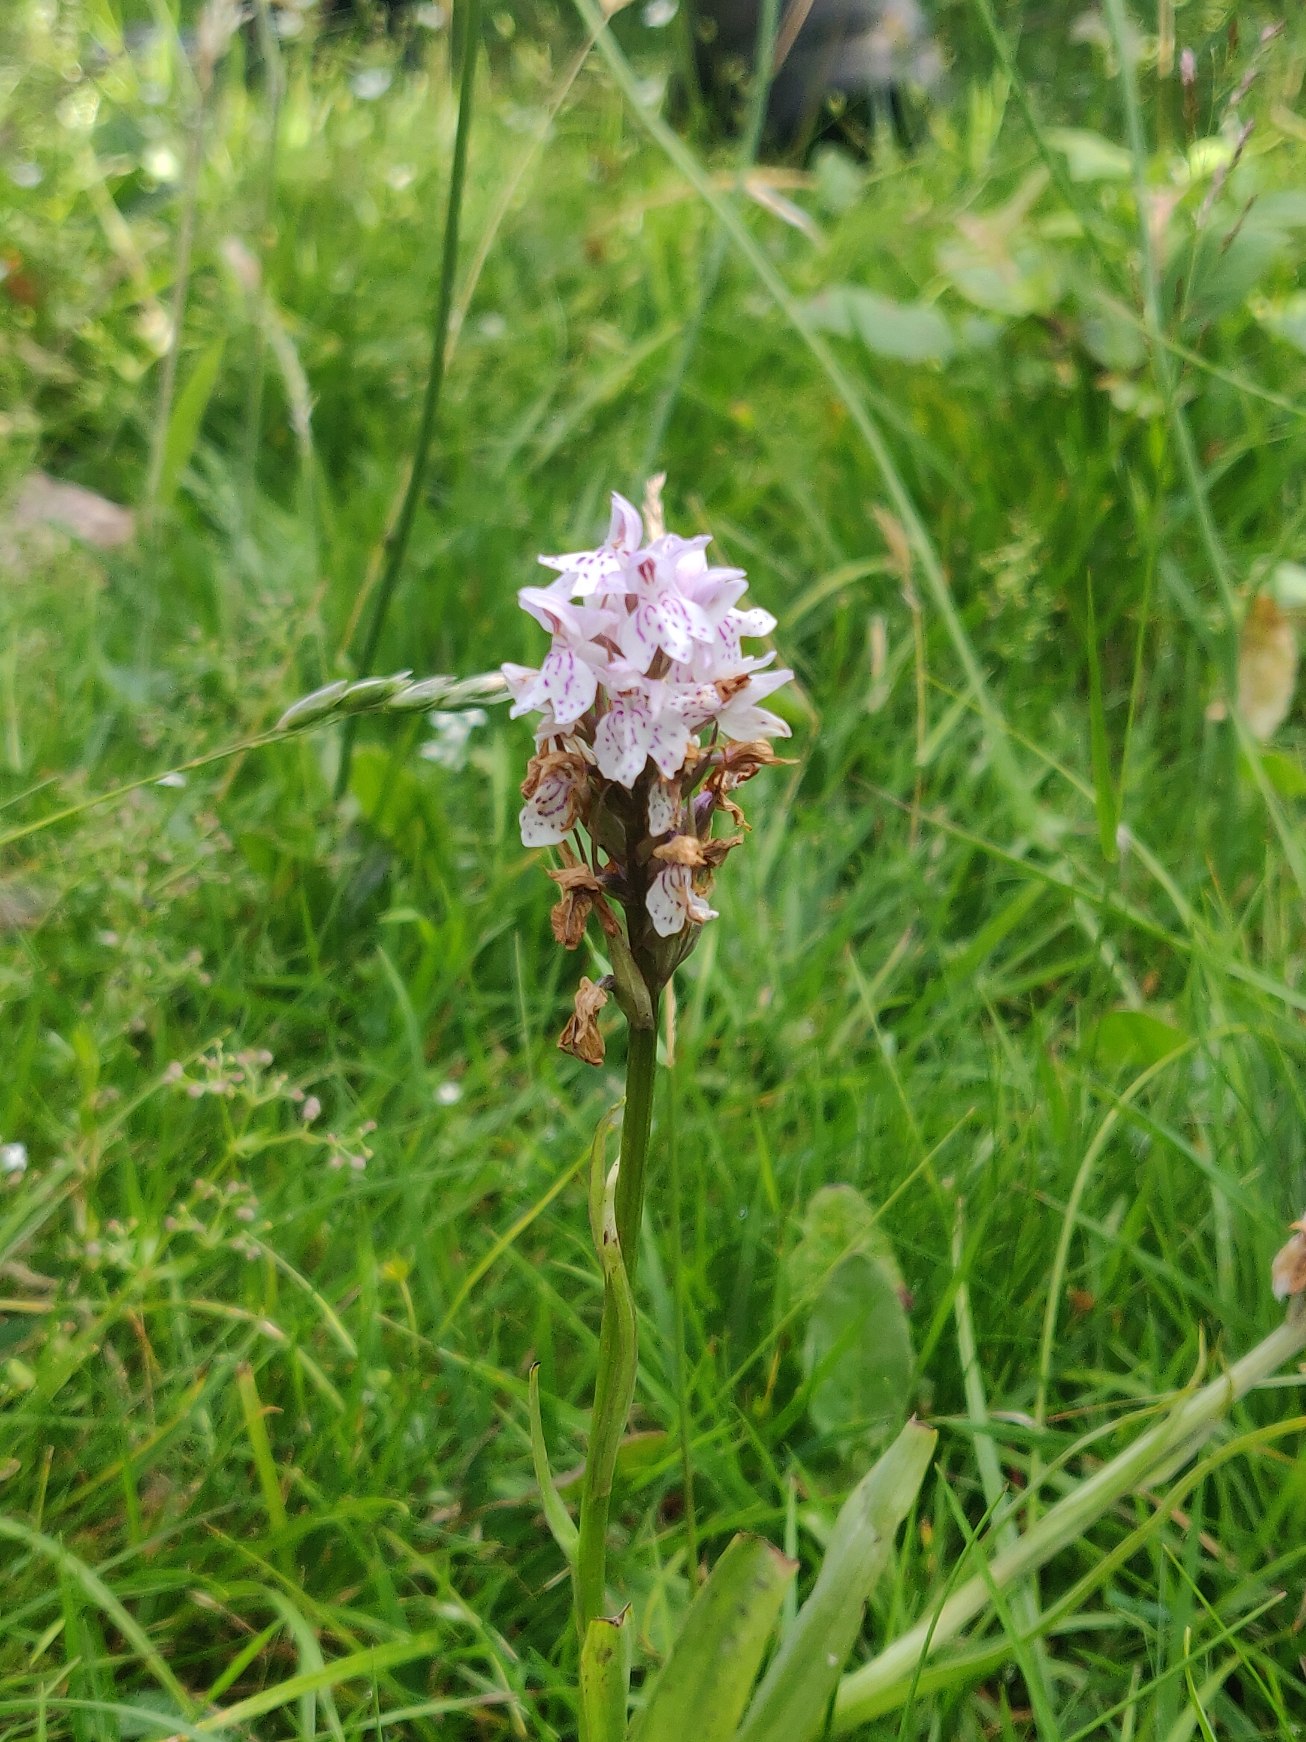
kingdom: Plantae
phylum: Tracheophyta
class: Liliopsida
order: Asparagales
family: Orchidaceae
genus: Dactylorhiza
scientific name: Dactylorhiza maculata
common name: Plettet gøgeurt
